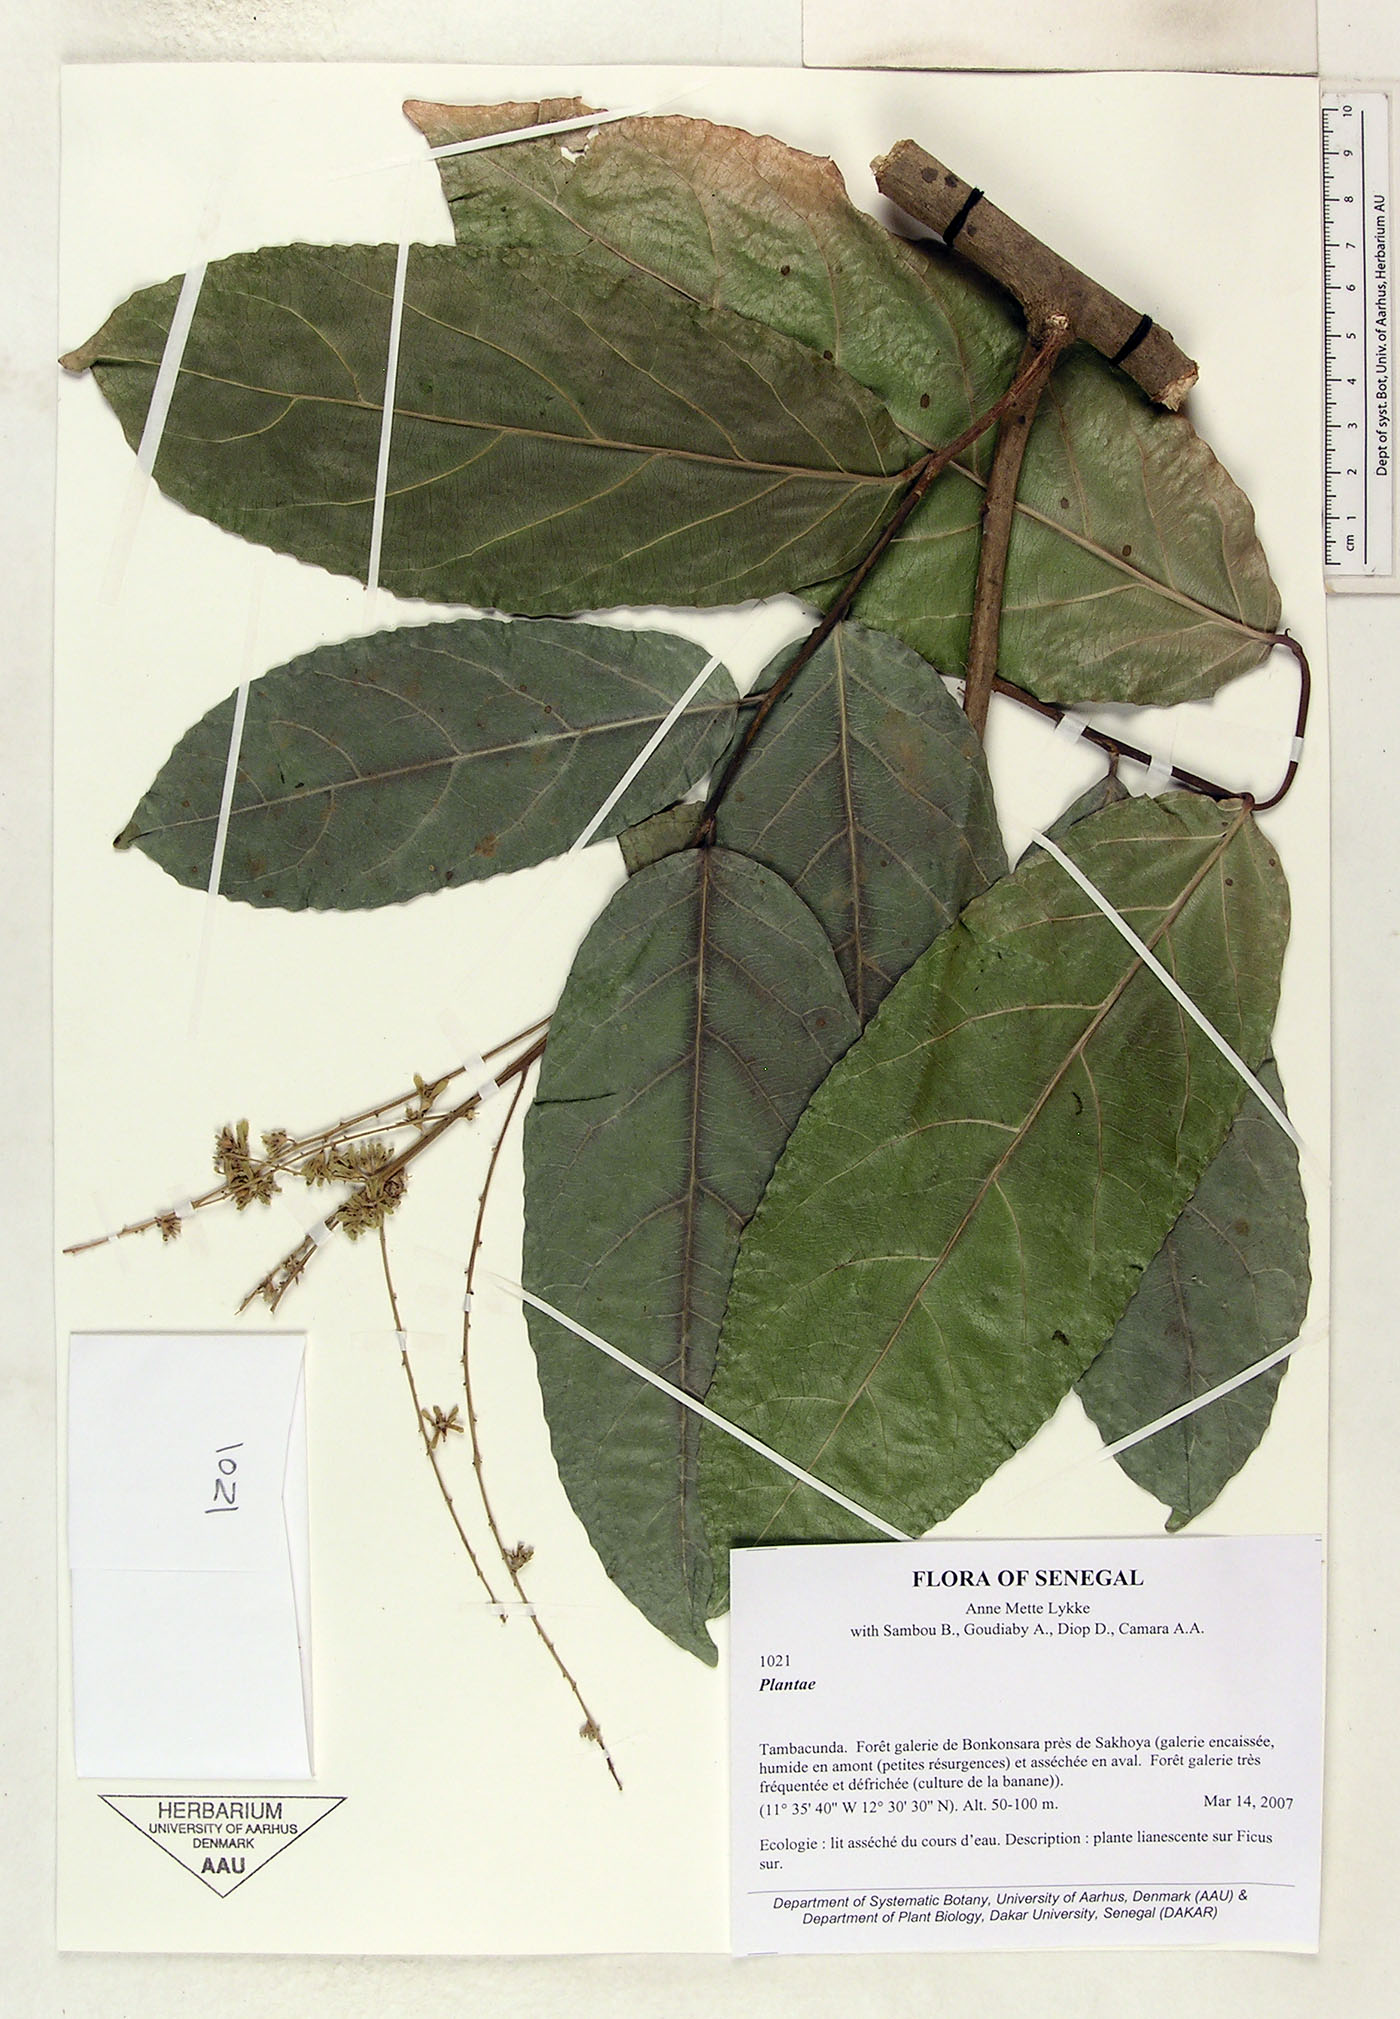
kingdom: Plantae
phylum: Tracheophyta
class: Magnoliopsida
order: Malpighiales
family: Salicaceae
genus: Homalium
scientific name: Homalium
